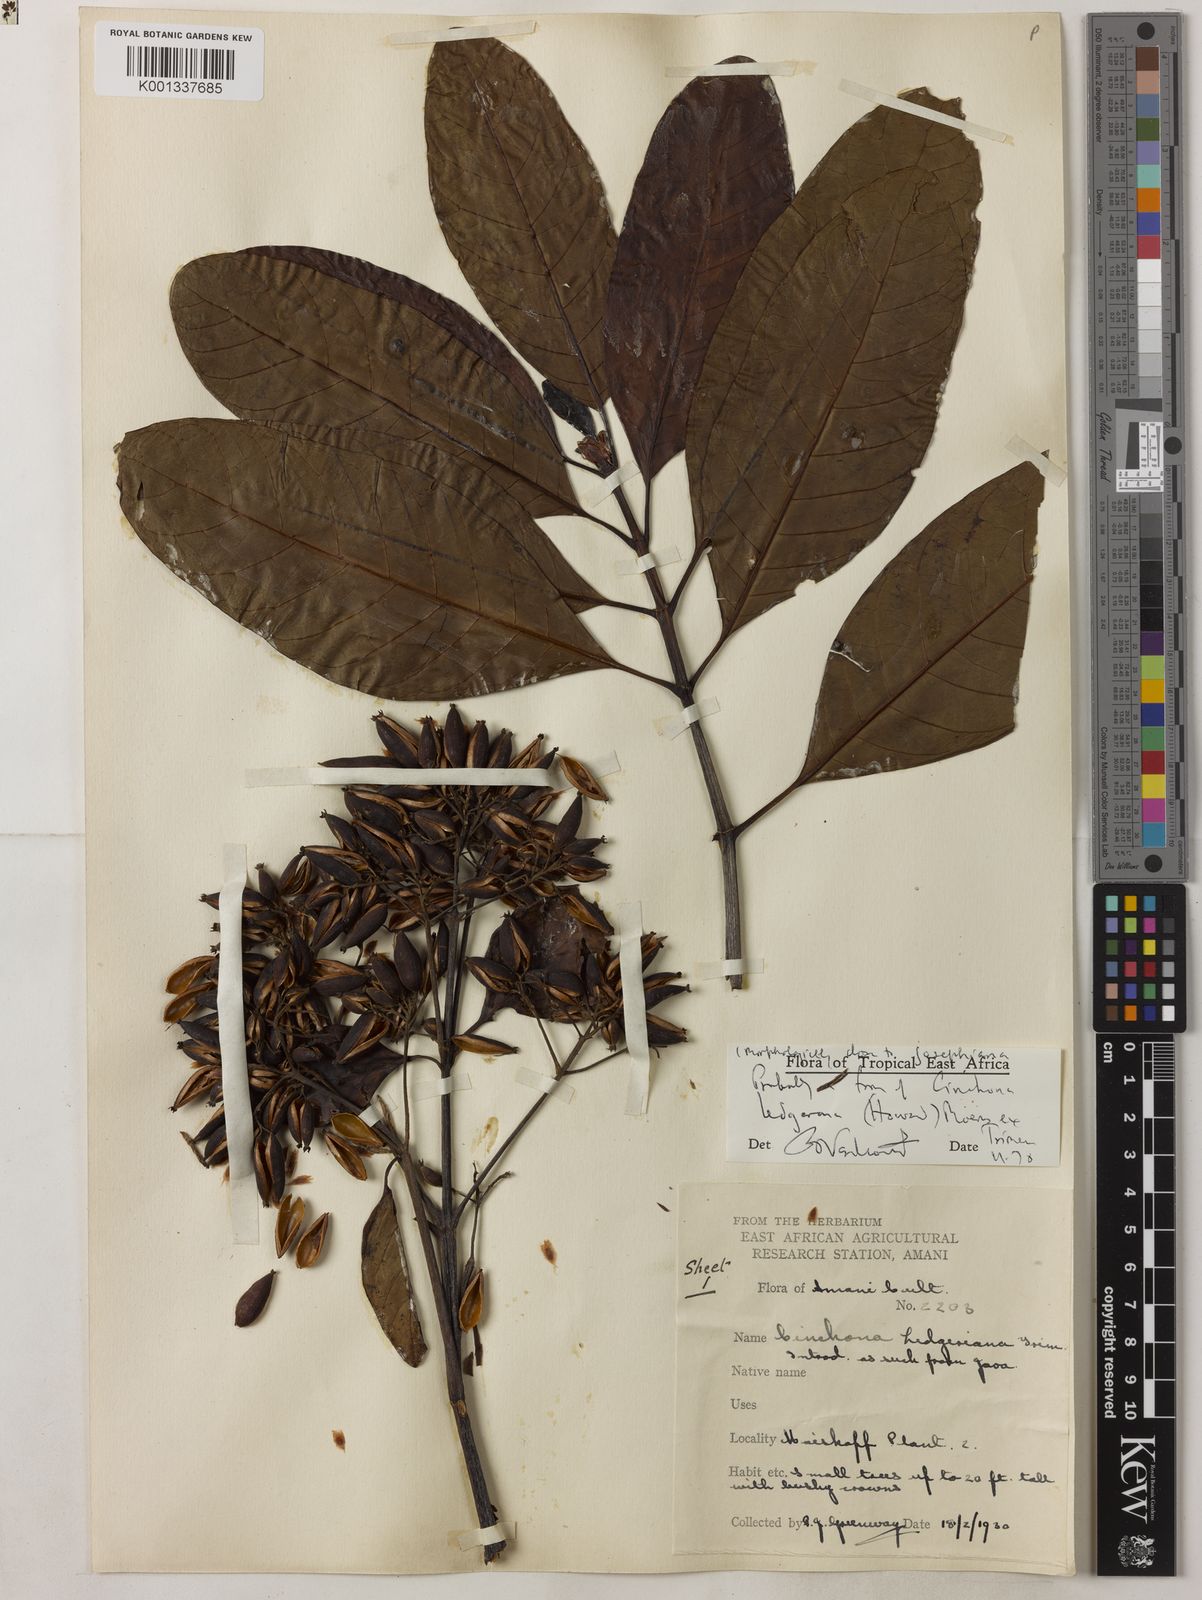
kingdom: Plantae
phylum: Tracheophyta
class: Magnoliopsida
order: Gentianales
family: Rubiaceae
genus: Cinchona
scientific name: Cinchona calisaya
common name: Ledgerbark
